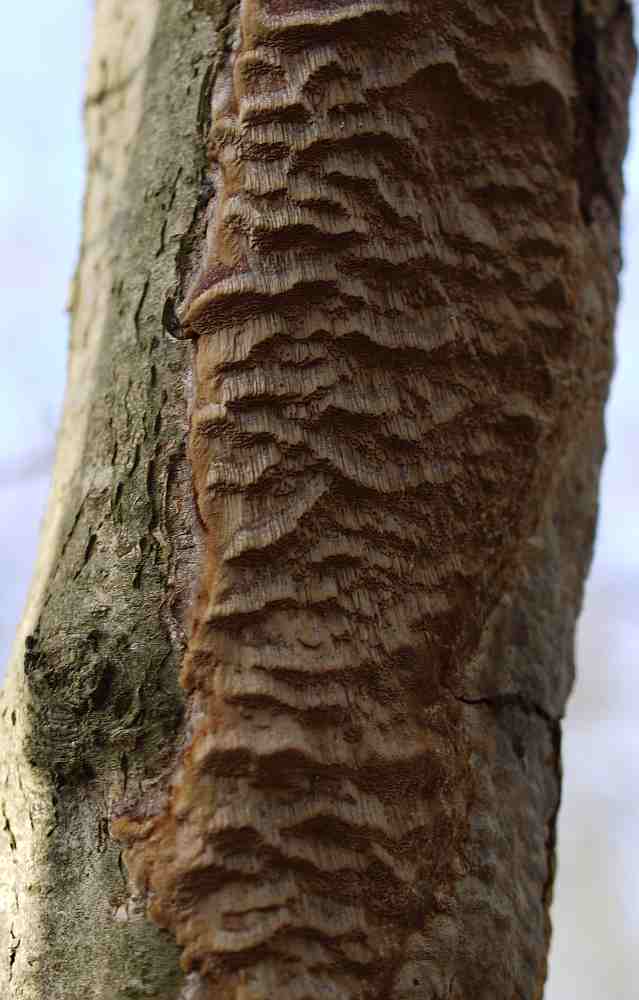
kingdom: Fungi
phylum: Basidiomycota
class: Agaricomycetes
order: Hymenochaetales
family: Hymenochaetaceae
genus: Fuscoporia
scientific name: Fuscoporia ferrea
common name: skorpe-ildporesvamp
